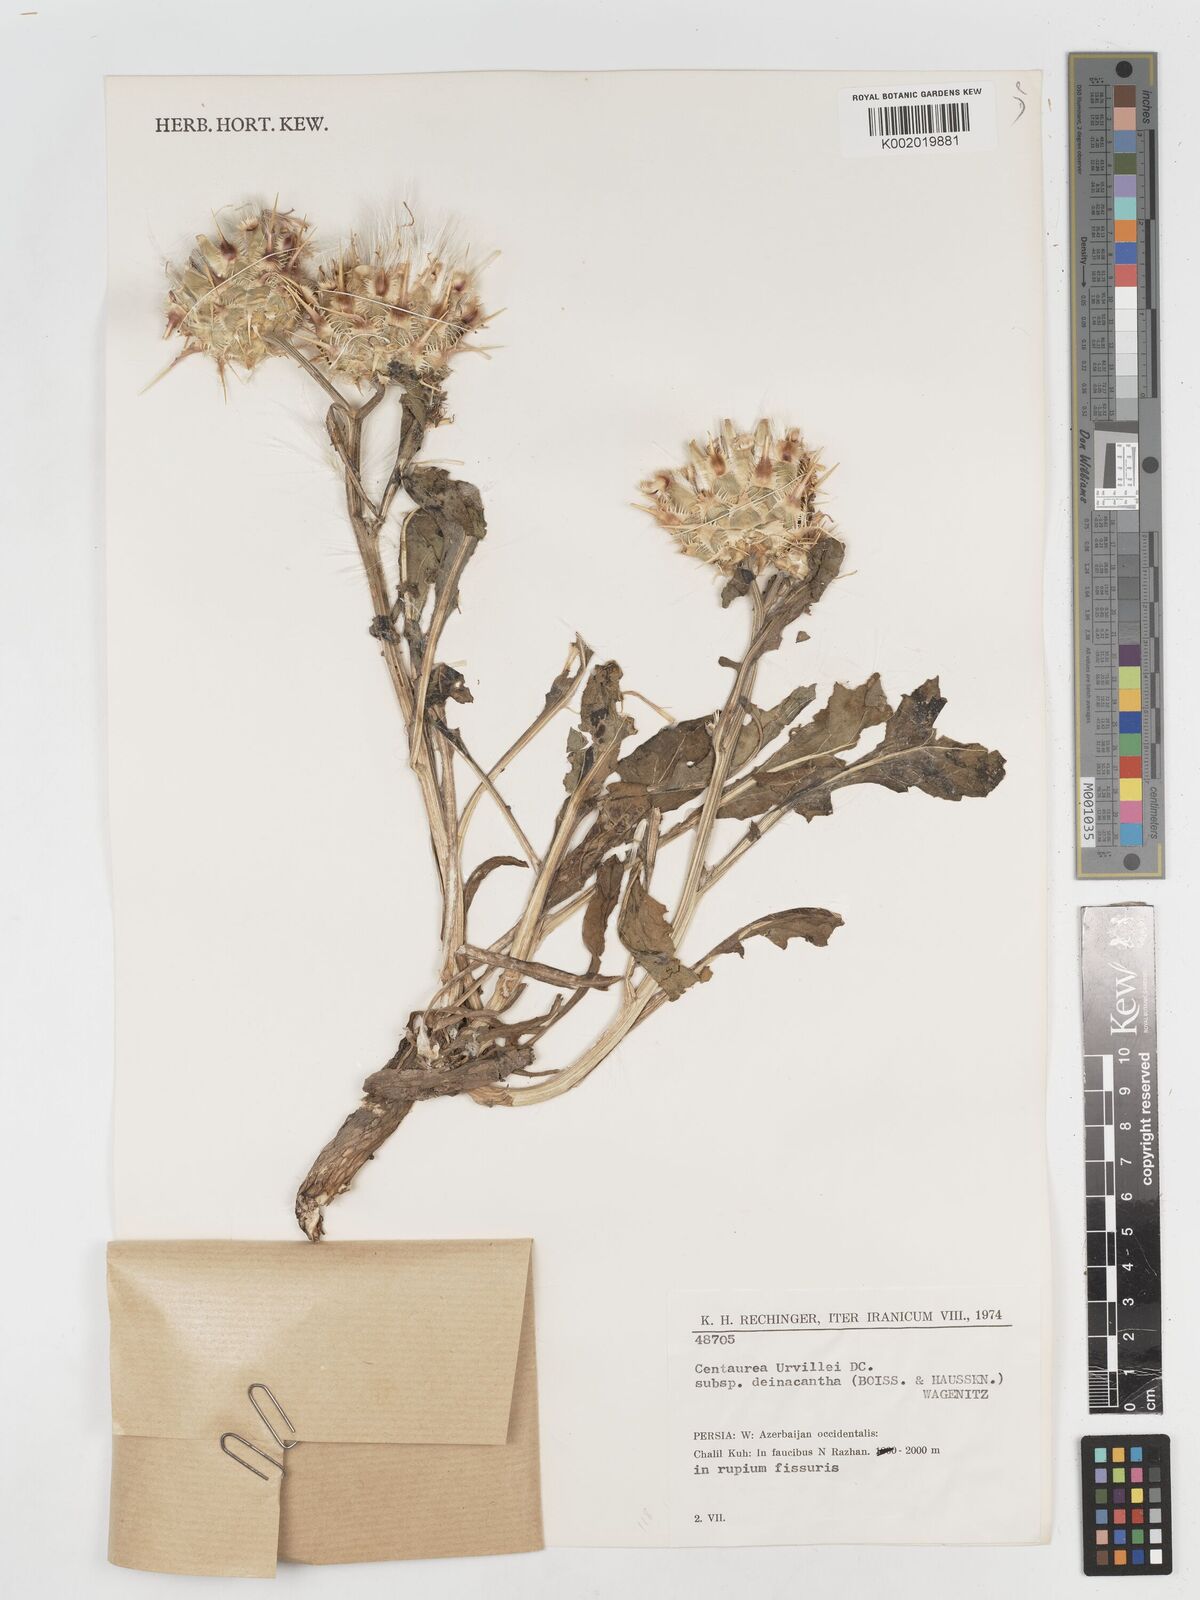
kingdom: Plantae
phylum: Tracheophyta
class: Magnoliopsida
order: Asterales
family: Asteraceae
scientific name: Asteraceae
